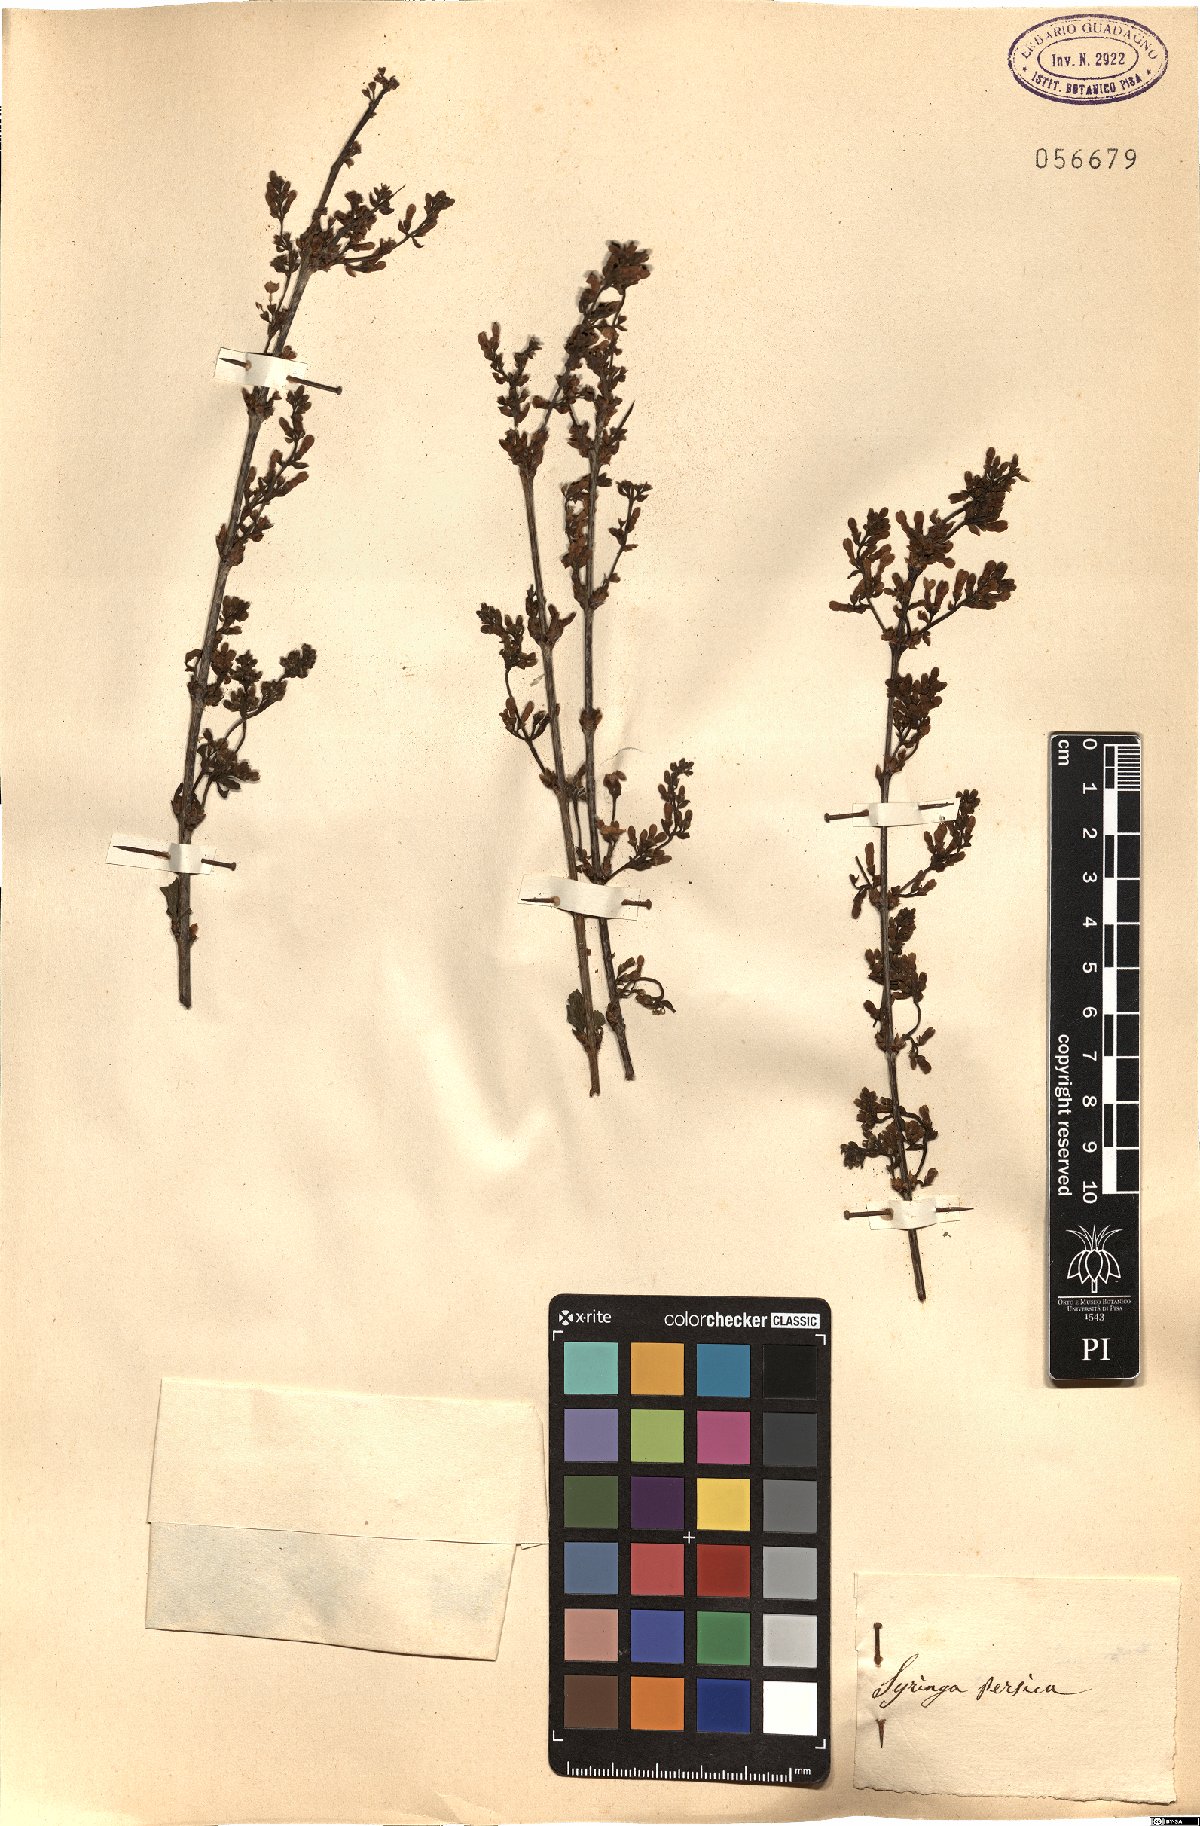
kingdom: Plantae
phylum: Tracheophyta
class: Magnoliopsida
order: Lamiales
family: Oleaceae
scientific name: Oleaceae
